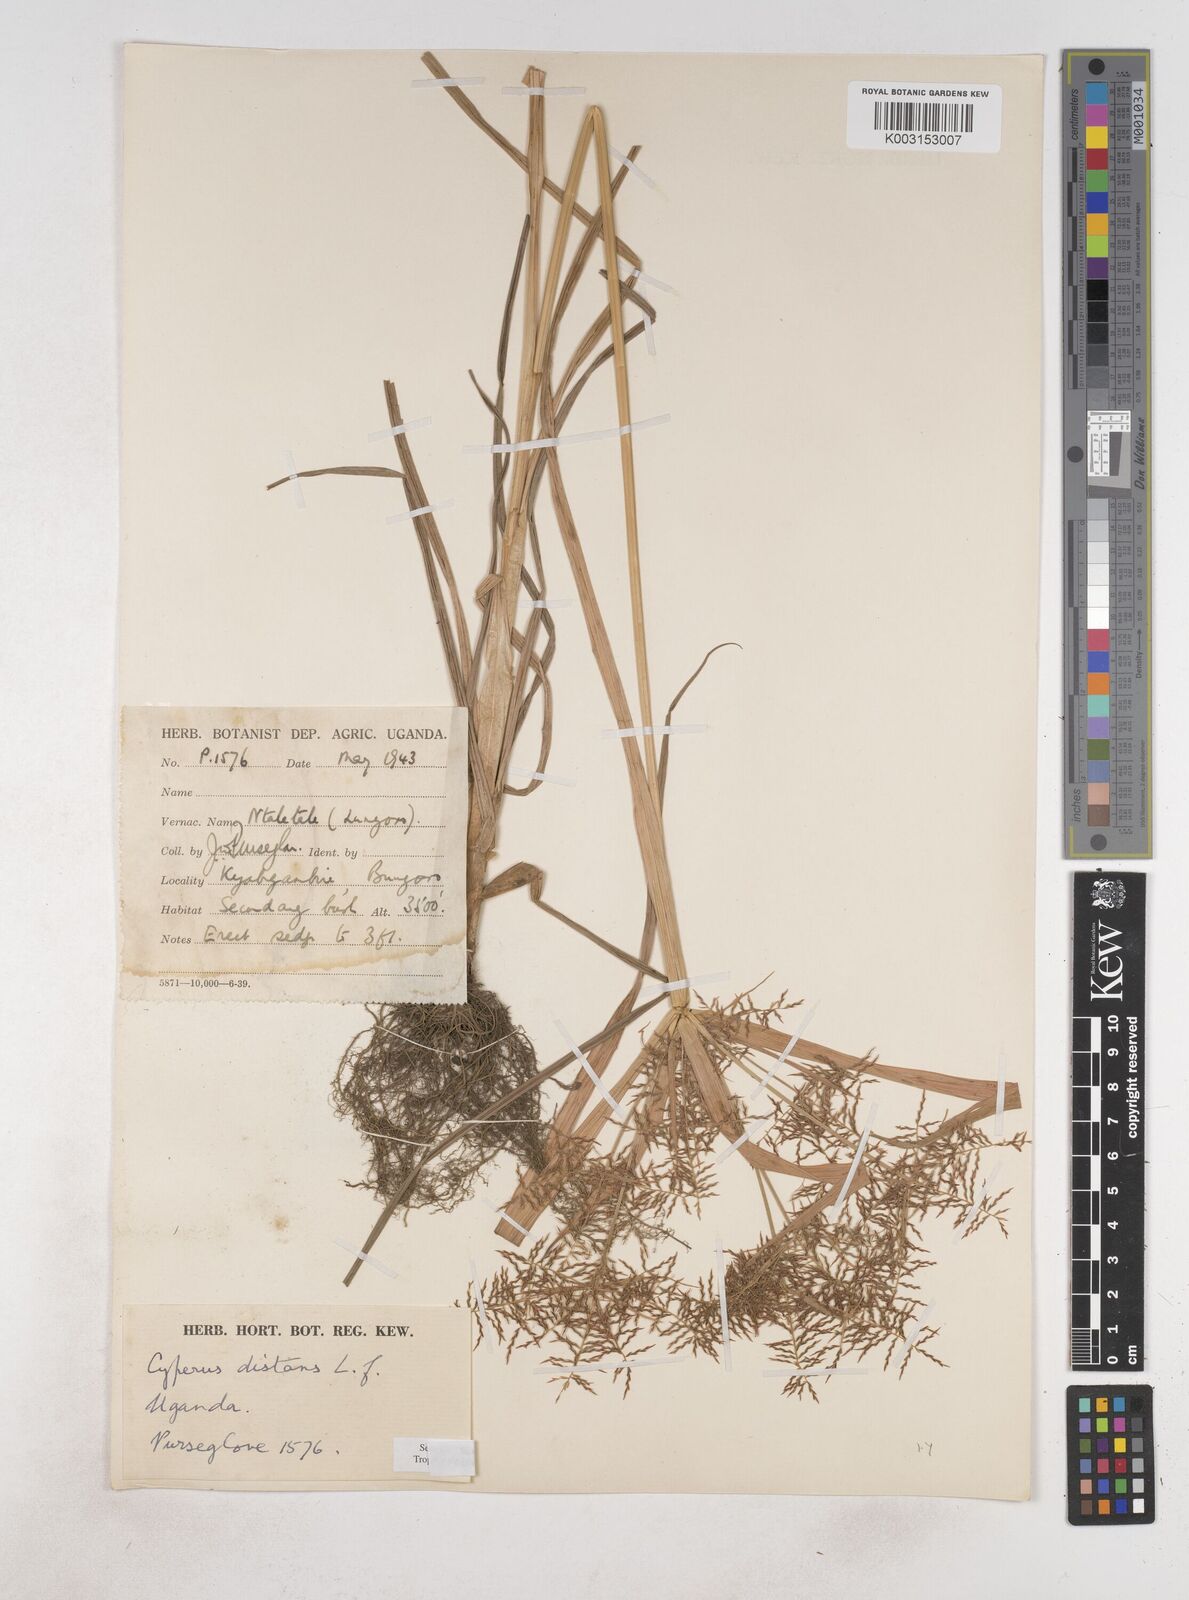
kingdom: Plantae
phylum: Tracheophyta
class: Liliopsida
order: Poales
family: Cyperaceae
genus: Cyperus
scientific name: Cyperus distans
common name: Slender cyperus
